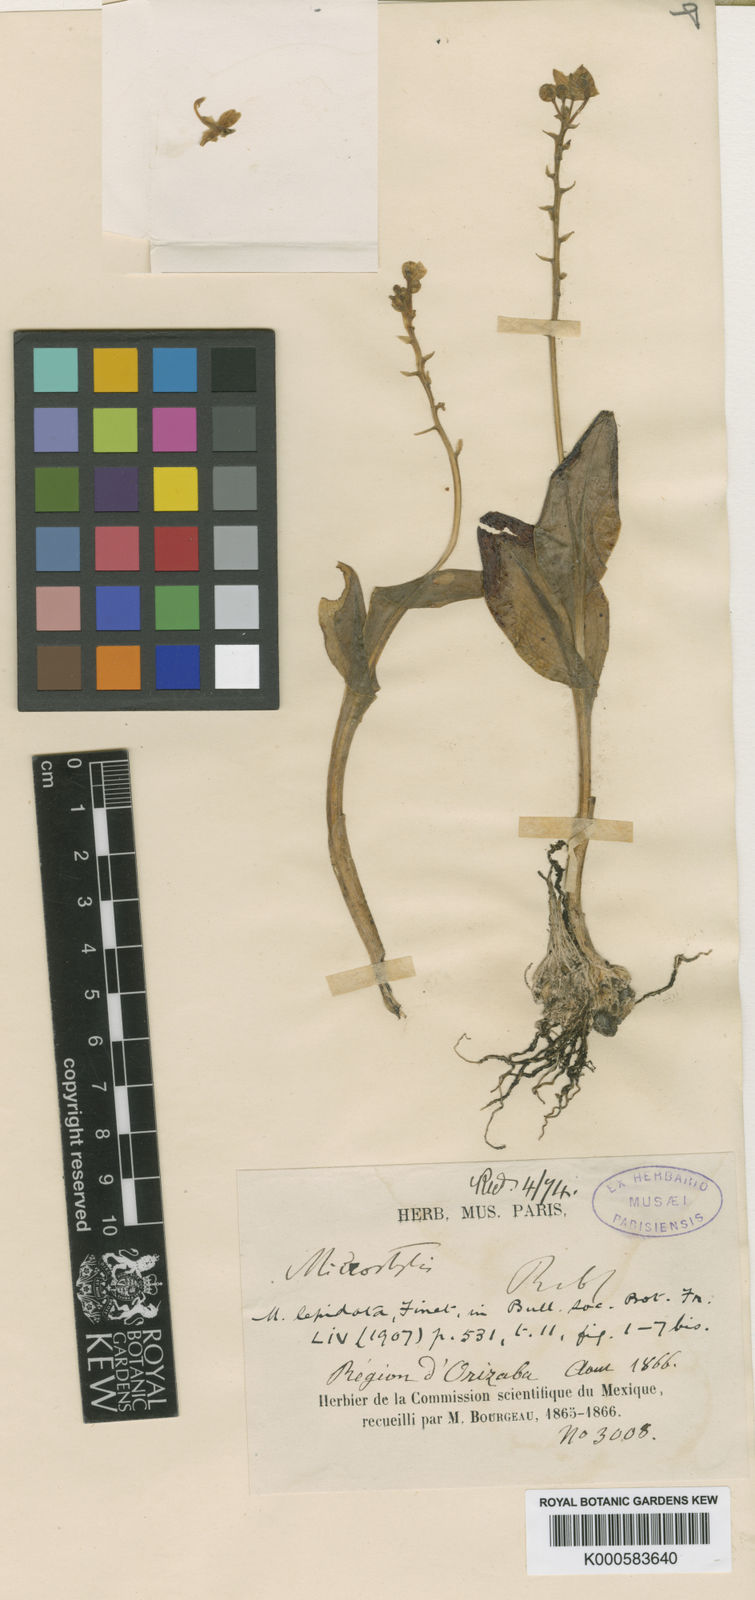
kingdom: Plantae
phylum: Tracheophyta
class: Liliopsida
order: Asparagales
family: Orchidaceae
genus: Malaxis
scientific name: Malaxis lepidota
